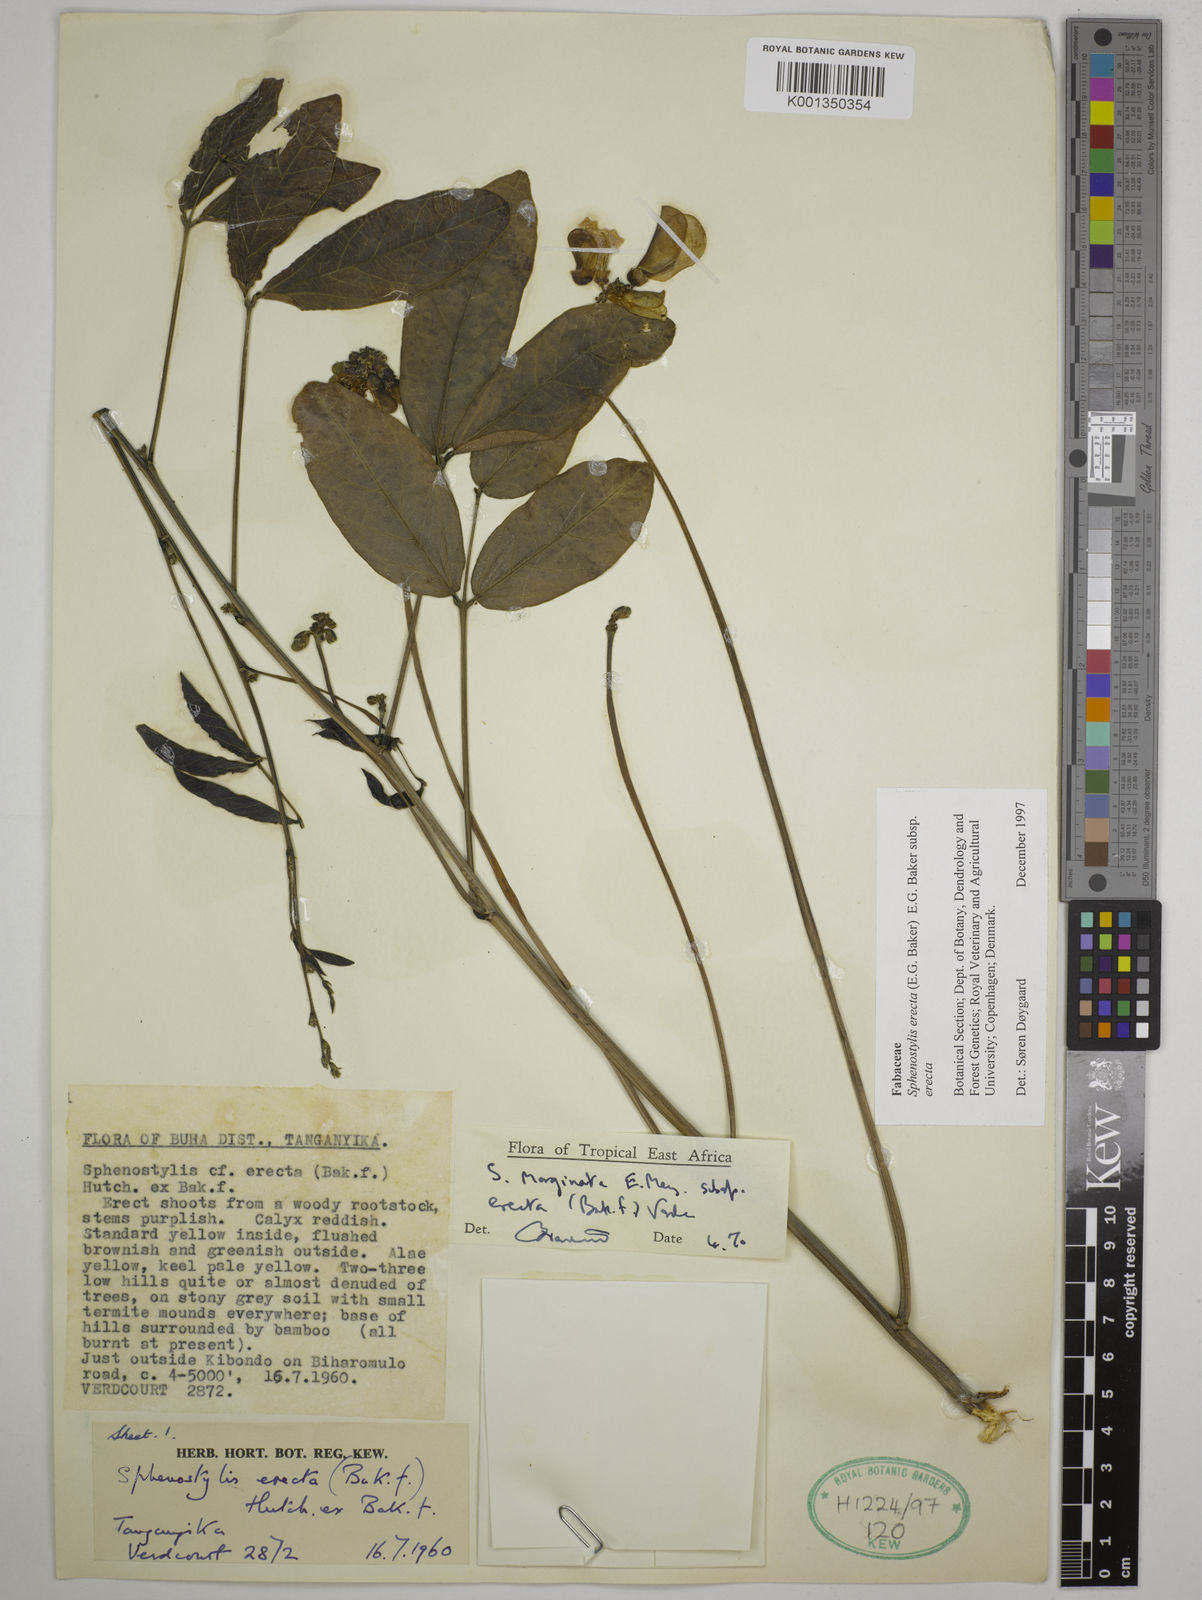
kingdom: Plantae
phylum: Tracheophyta
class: Magnoliopsida
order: Fabales
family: Fabaceae
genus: Sphenostylis
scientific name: Sphenostylis erecta
